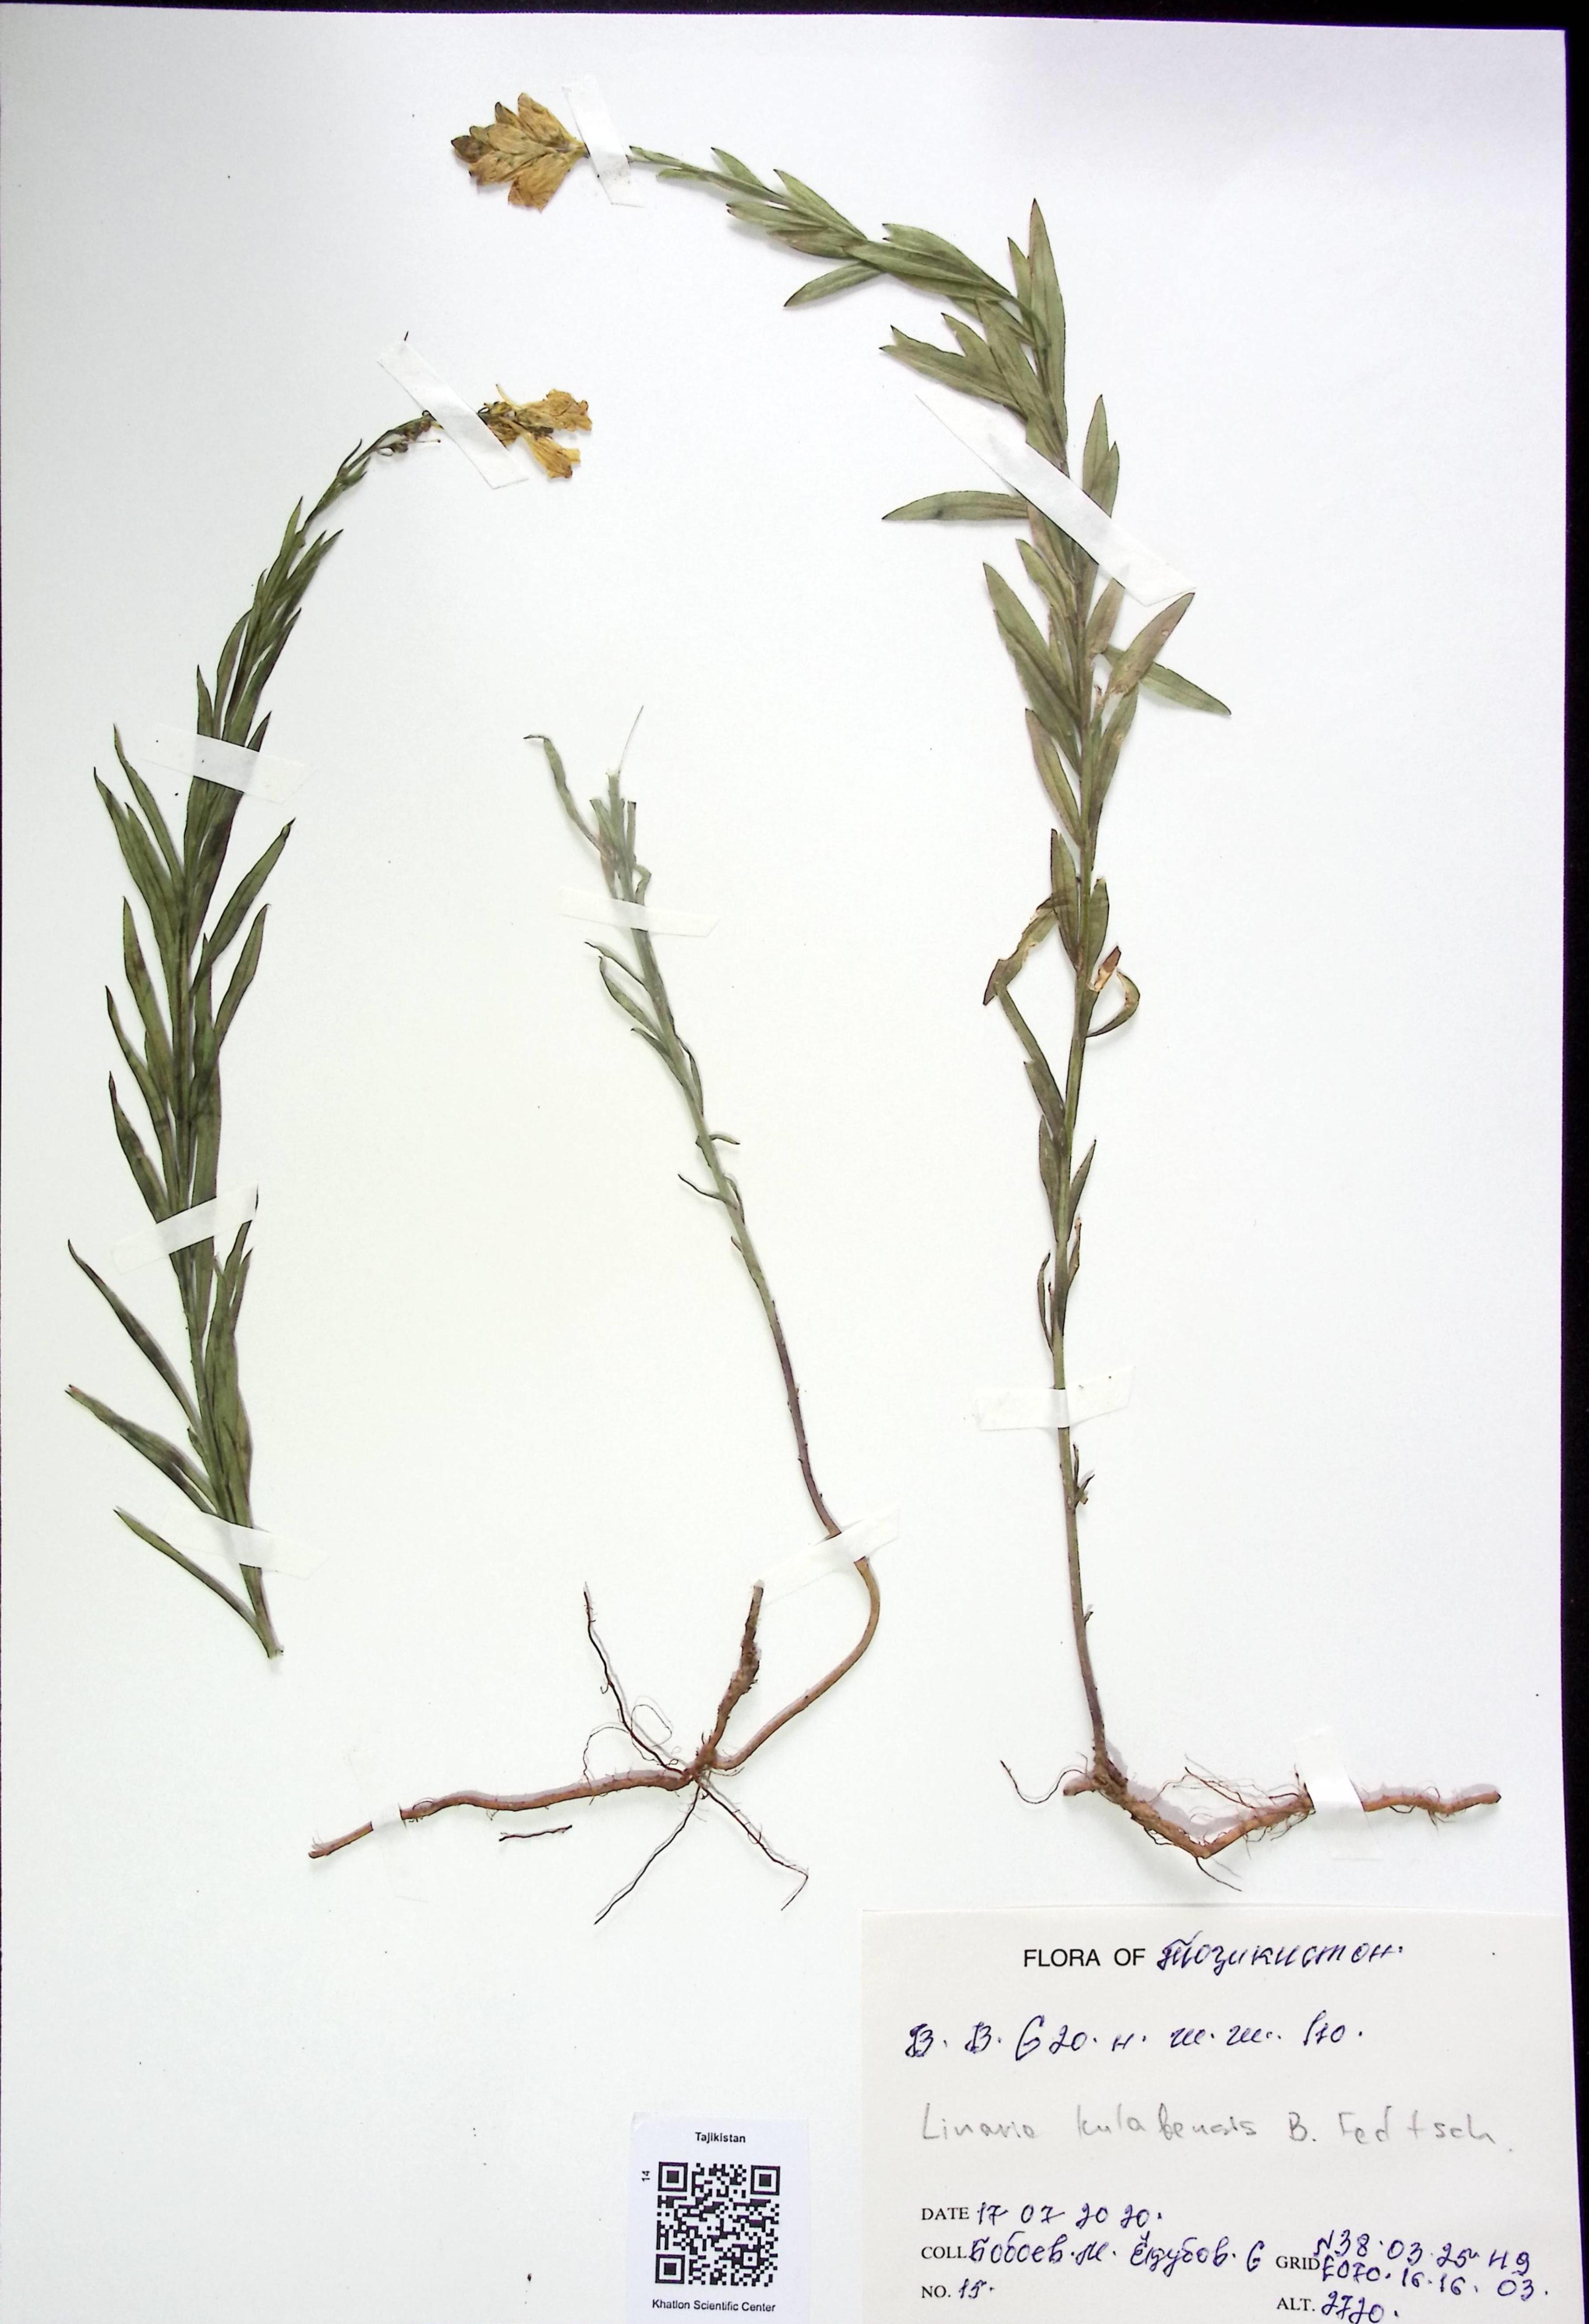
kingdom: Plantae
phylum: Tracheophyta
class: Magnoliopsida
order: Lamiales
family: Plantaginaceae
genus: Linaria
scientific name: Linaria kulabensis
